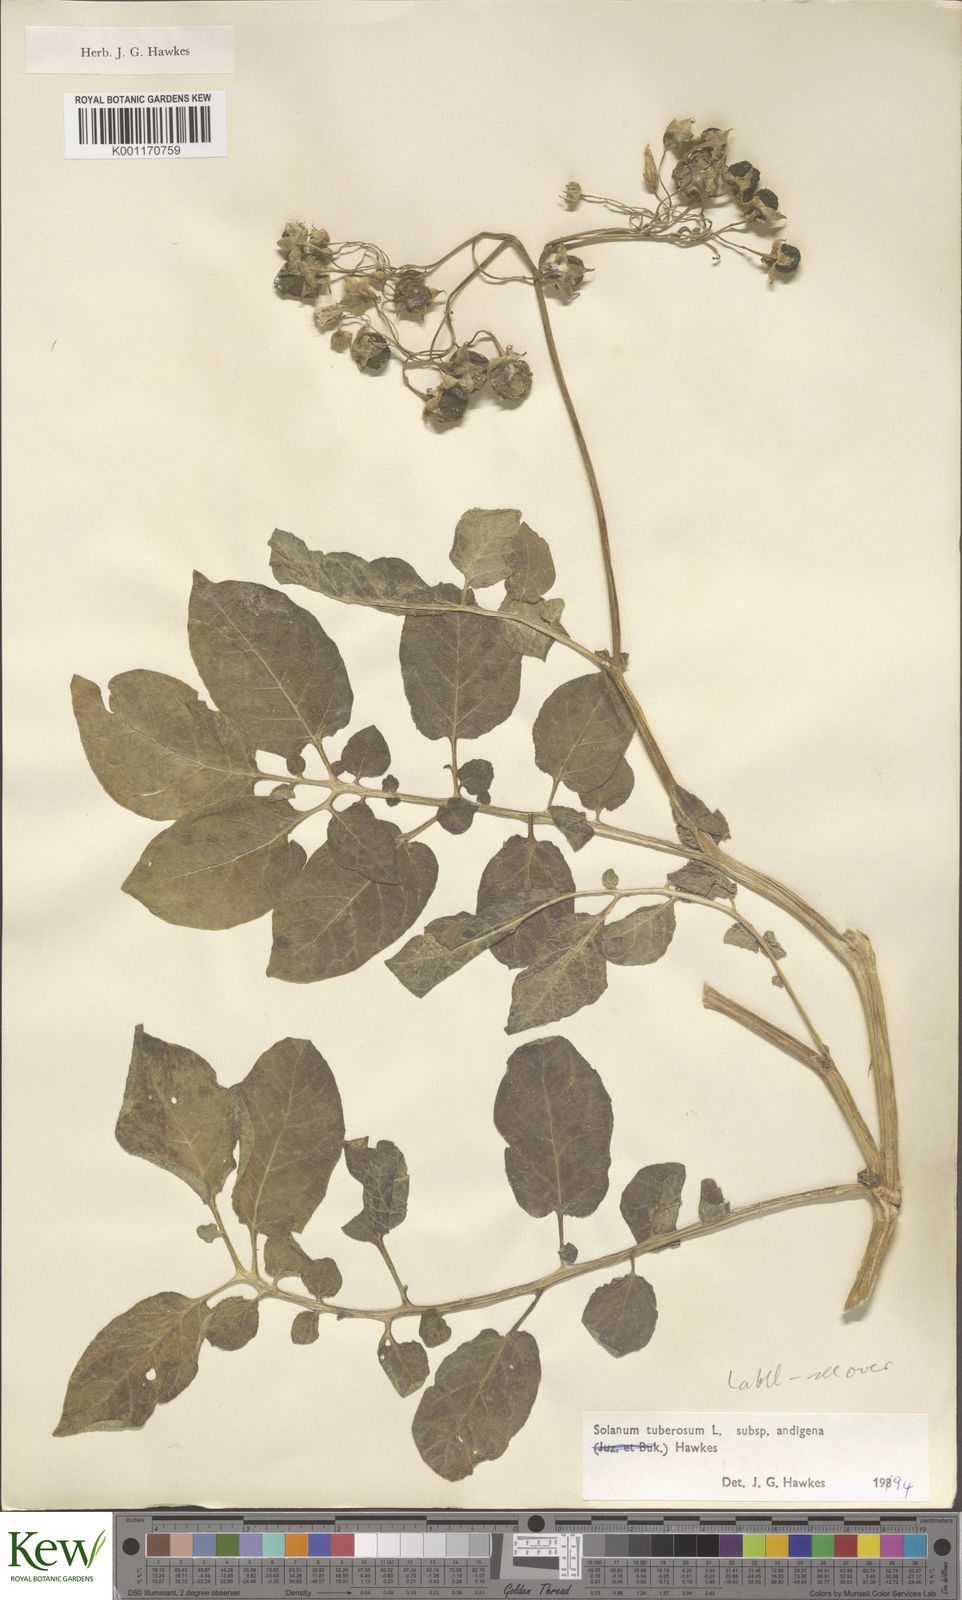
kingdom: Plantae
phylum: Tracheophyta
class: Magnoliopsida
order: Solanales
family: Solanaceae
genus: Solanum
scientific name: Solanum tuberosum
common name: Potato
